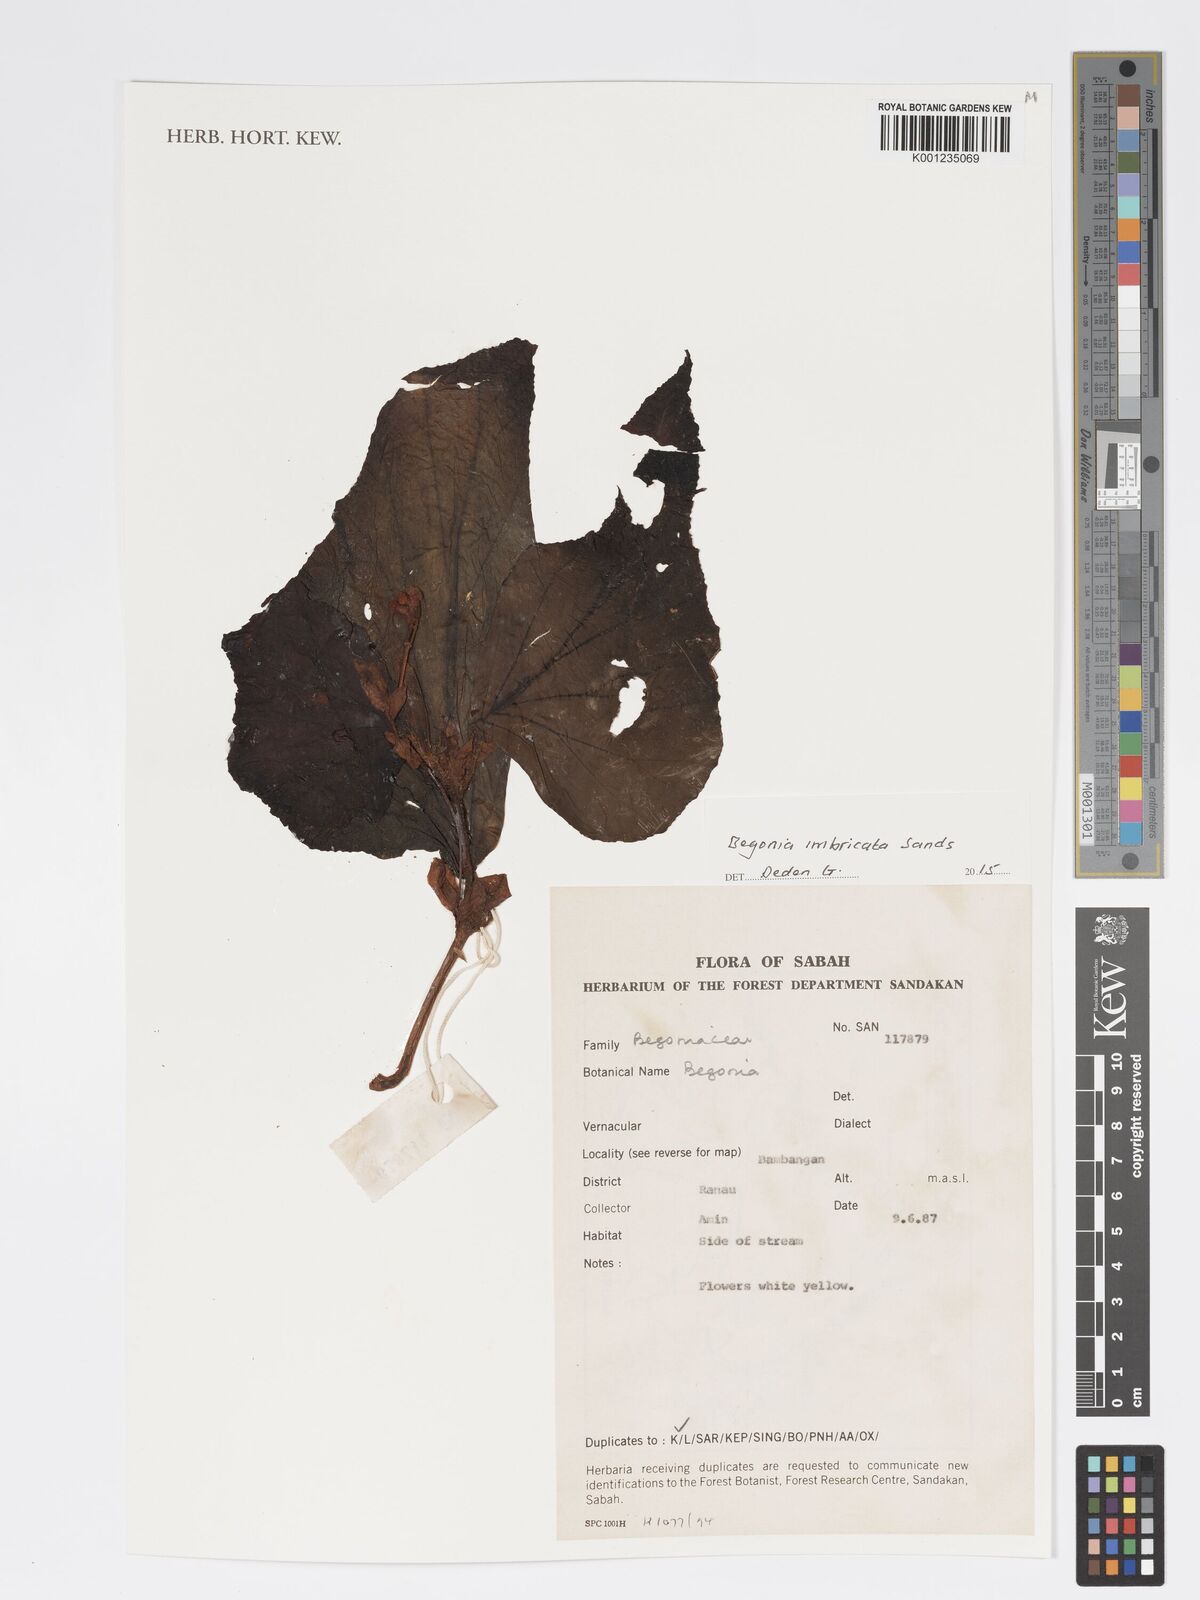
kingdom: Plantae
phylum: Tracheophyta
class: Magnoliopsida
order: Cucurbitales
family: Begoniaceae
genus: Begonia
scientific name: Begonia imbricata
